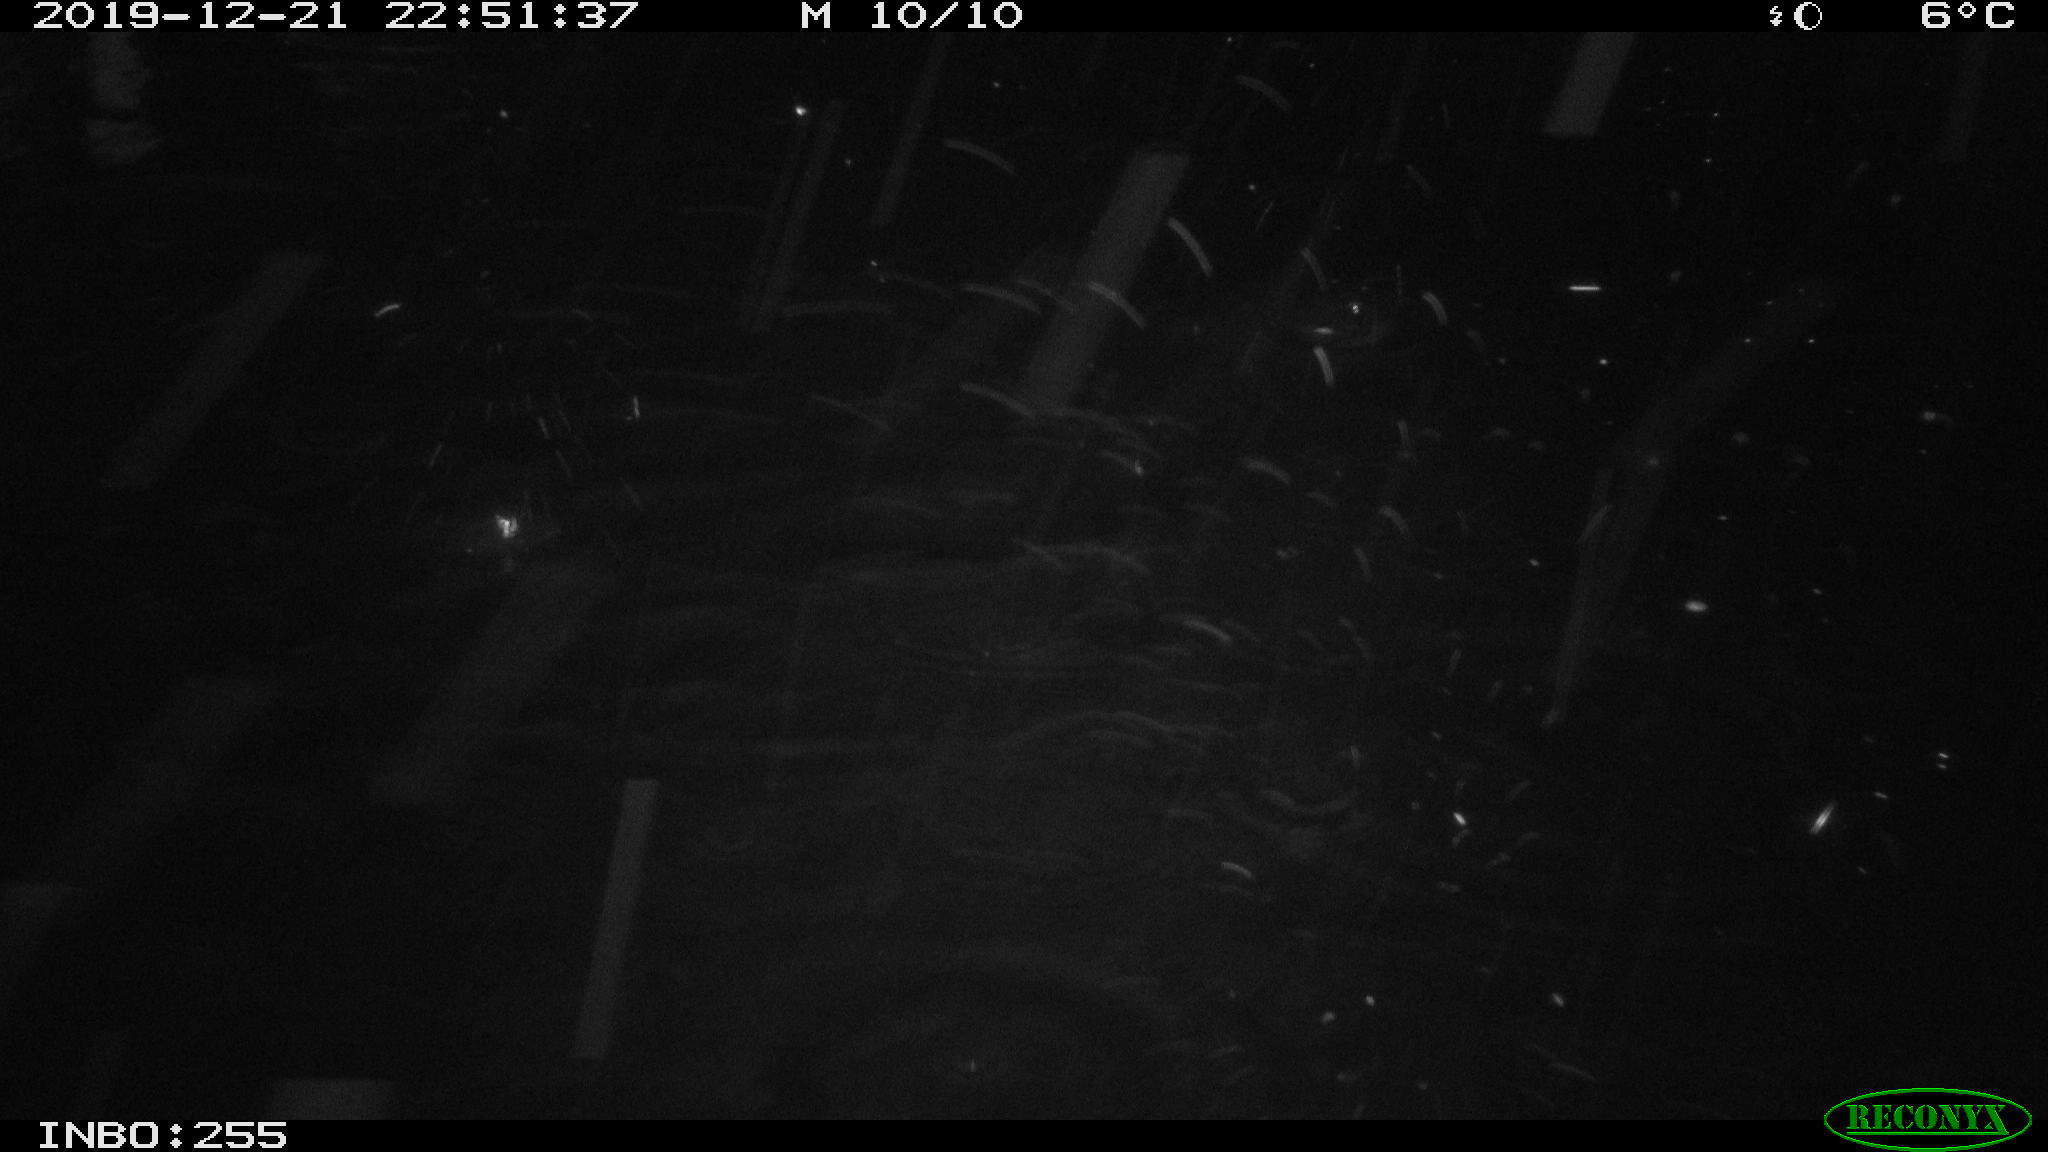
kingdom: Animalia
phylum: Chordata
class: Aves
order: Gruiformes
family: Rallidae
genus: Gallinula
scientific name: Gallinula chloropus
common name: Common moorhen
